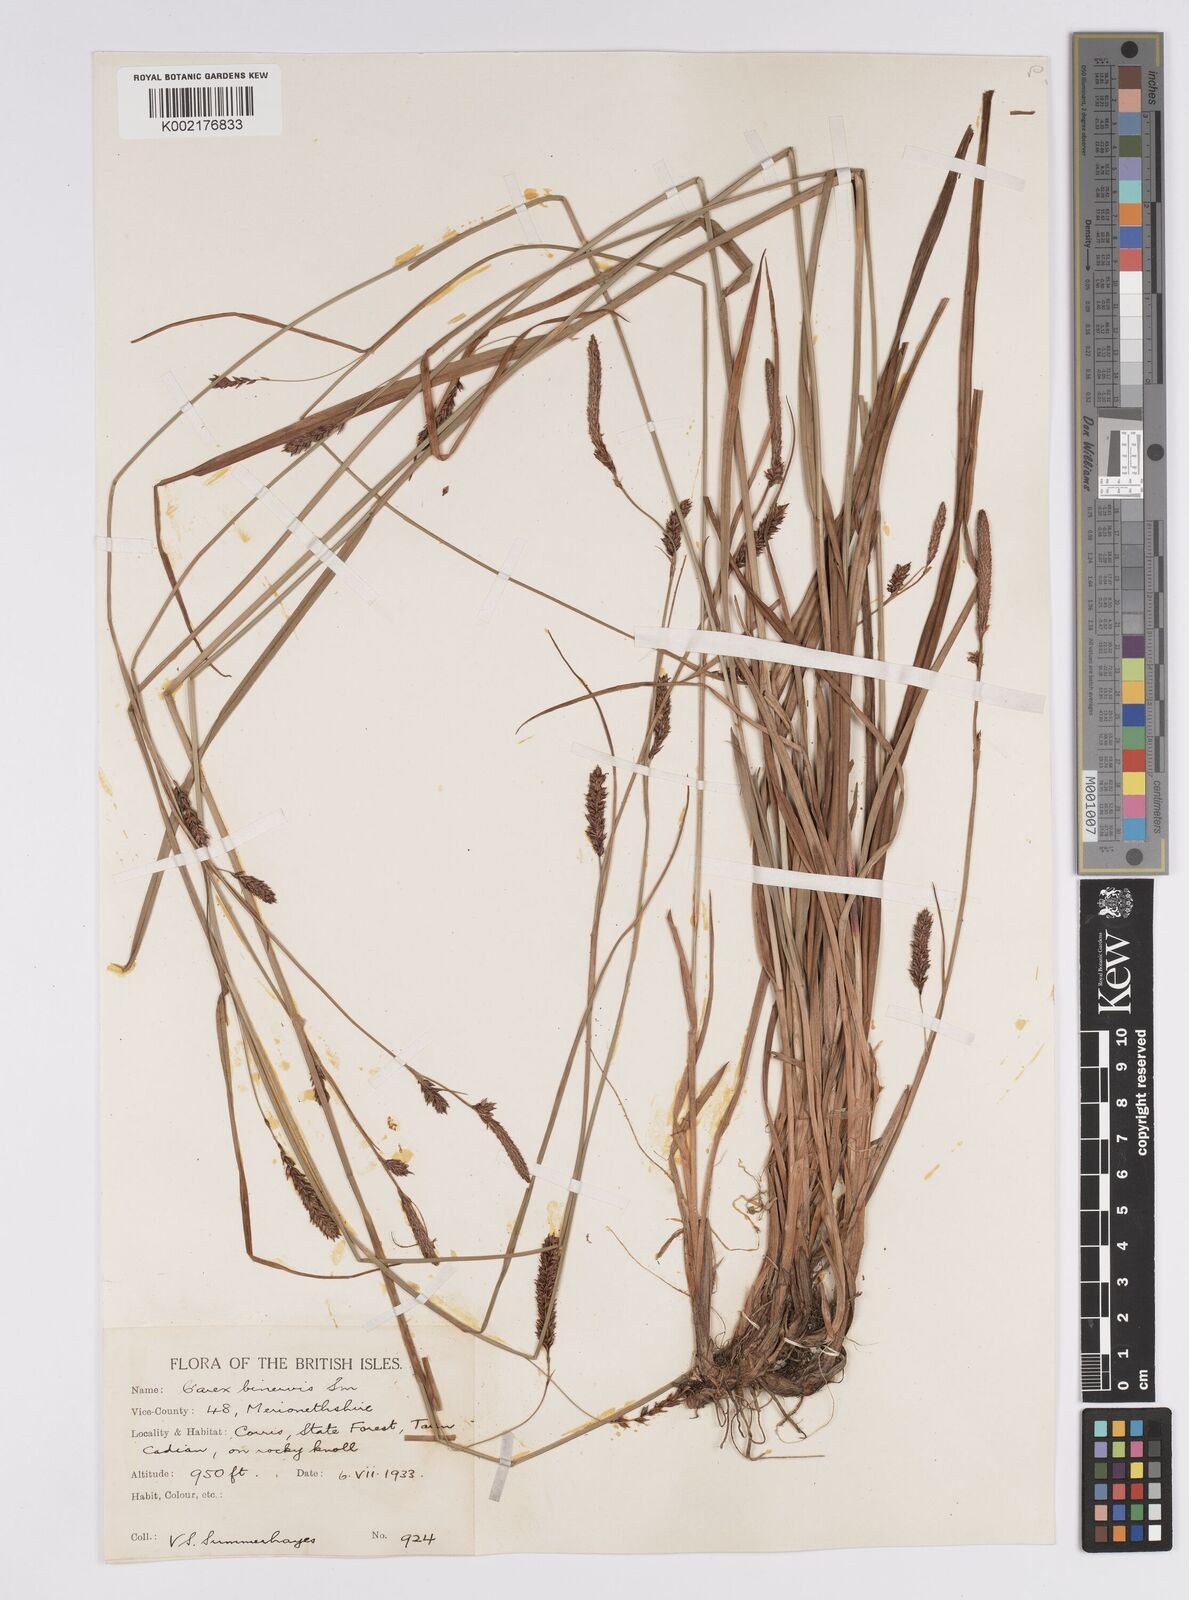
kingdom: Plantae
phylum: Tracheophyta
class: Liliopsida
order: Poales
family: Cyperaceae
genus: Carex
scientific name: Carex binervis
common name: Green-ribbed sedge
